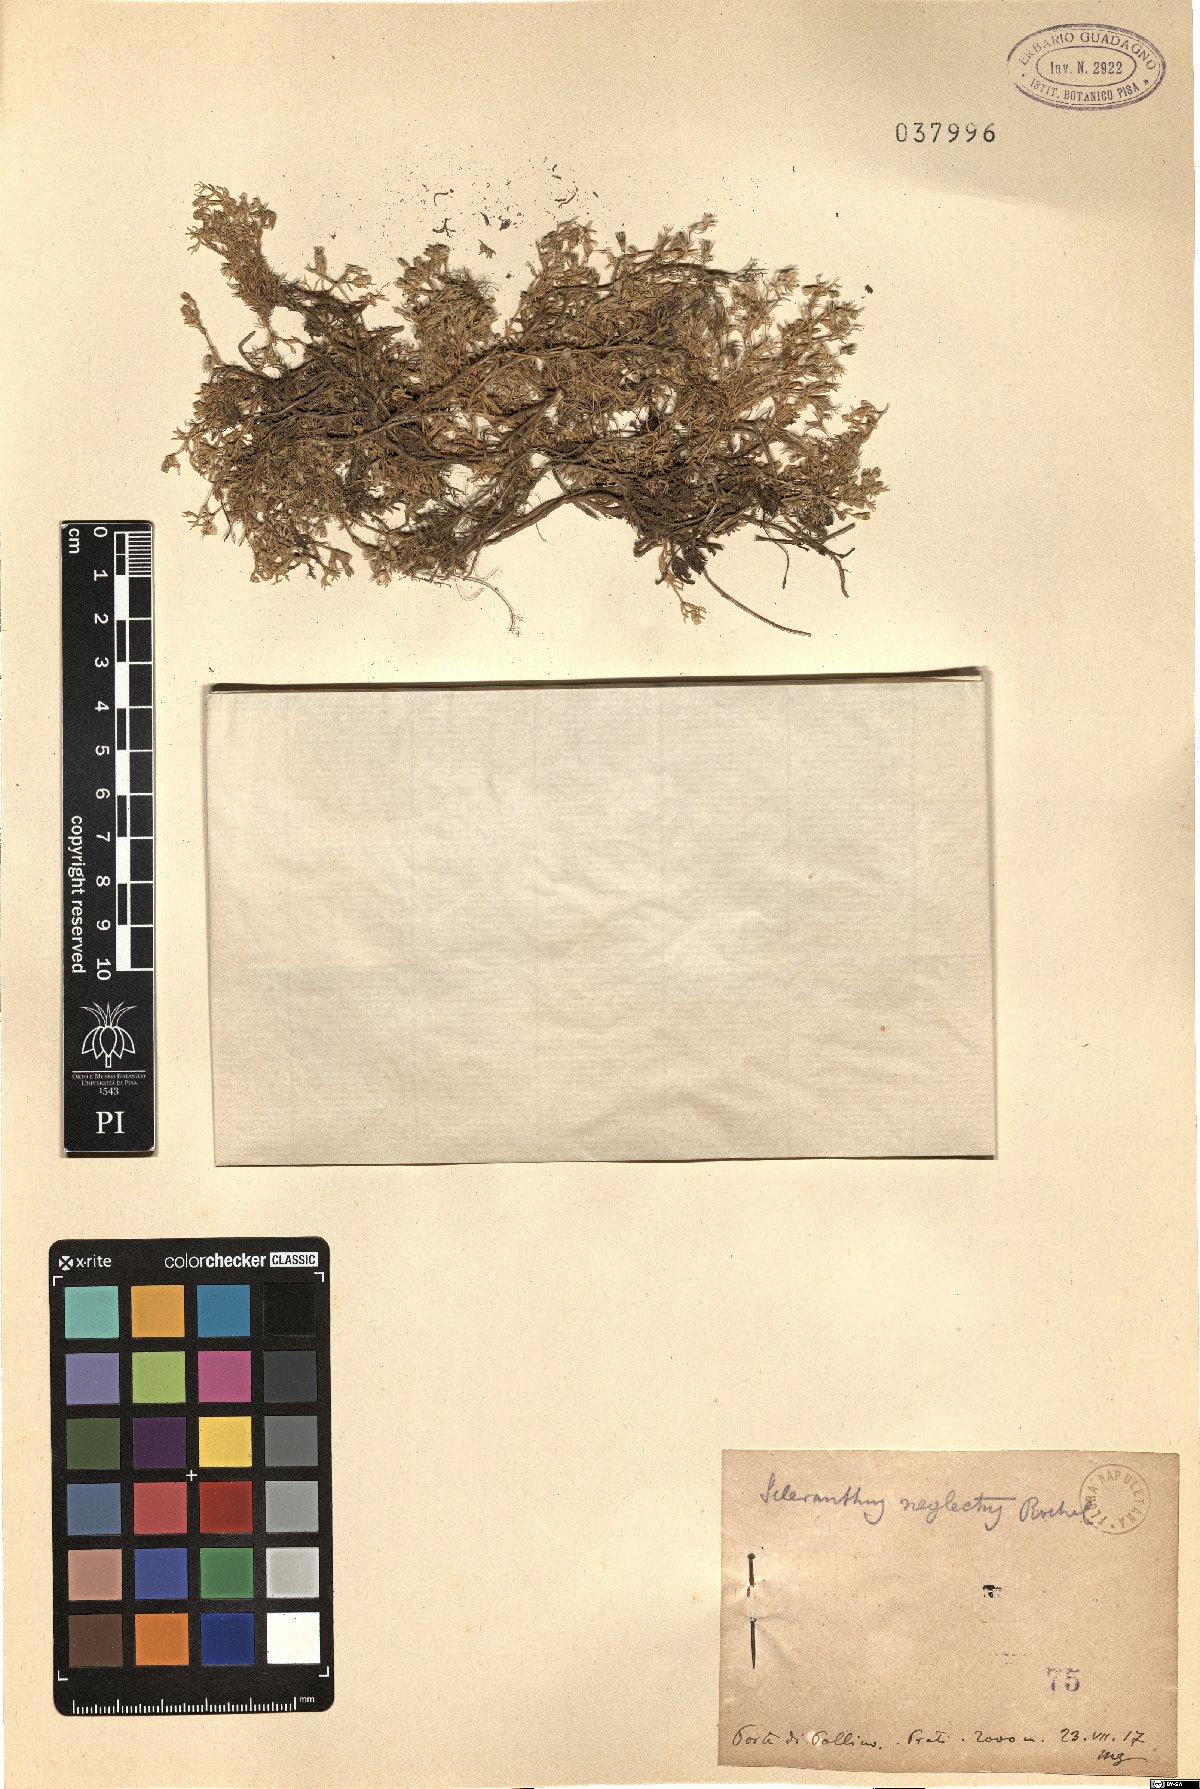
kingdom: Plantae
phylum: Tracheophyta
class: Magnoliopsida
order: Caryophyllales
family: Caryophyllaceae
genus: Scleranthus
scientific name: Scleranthus perennis
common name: Perennial knawel
